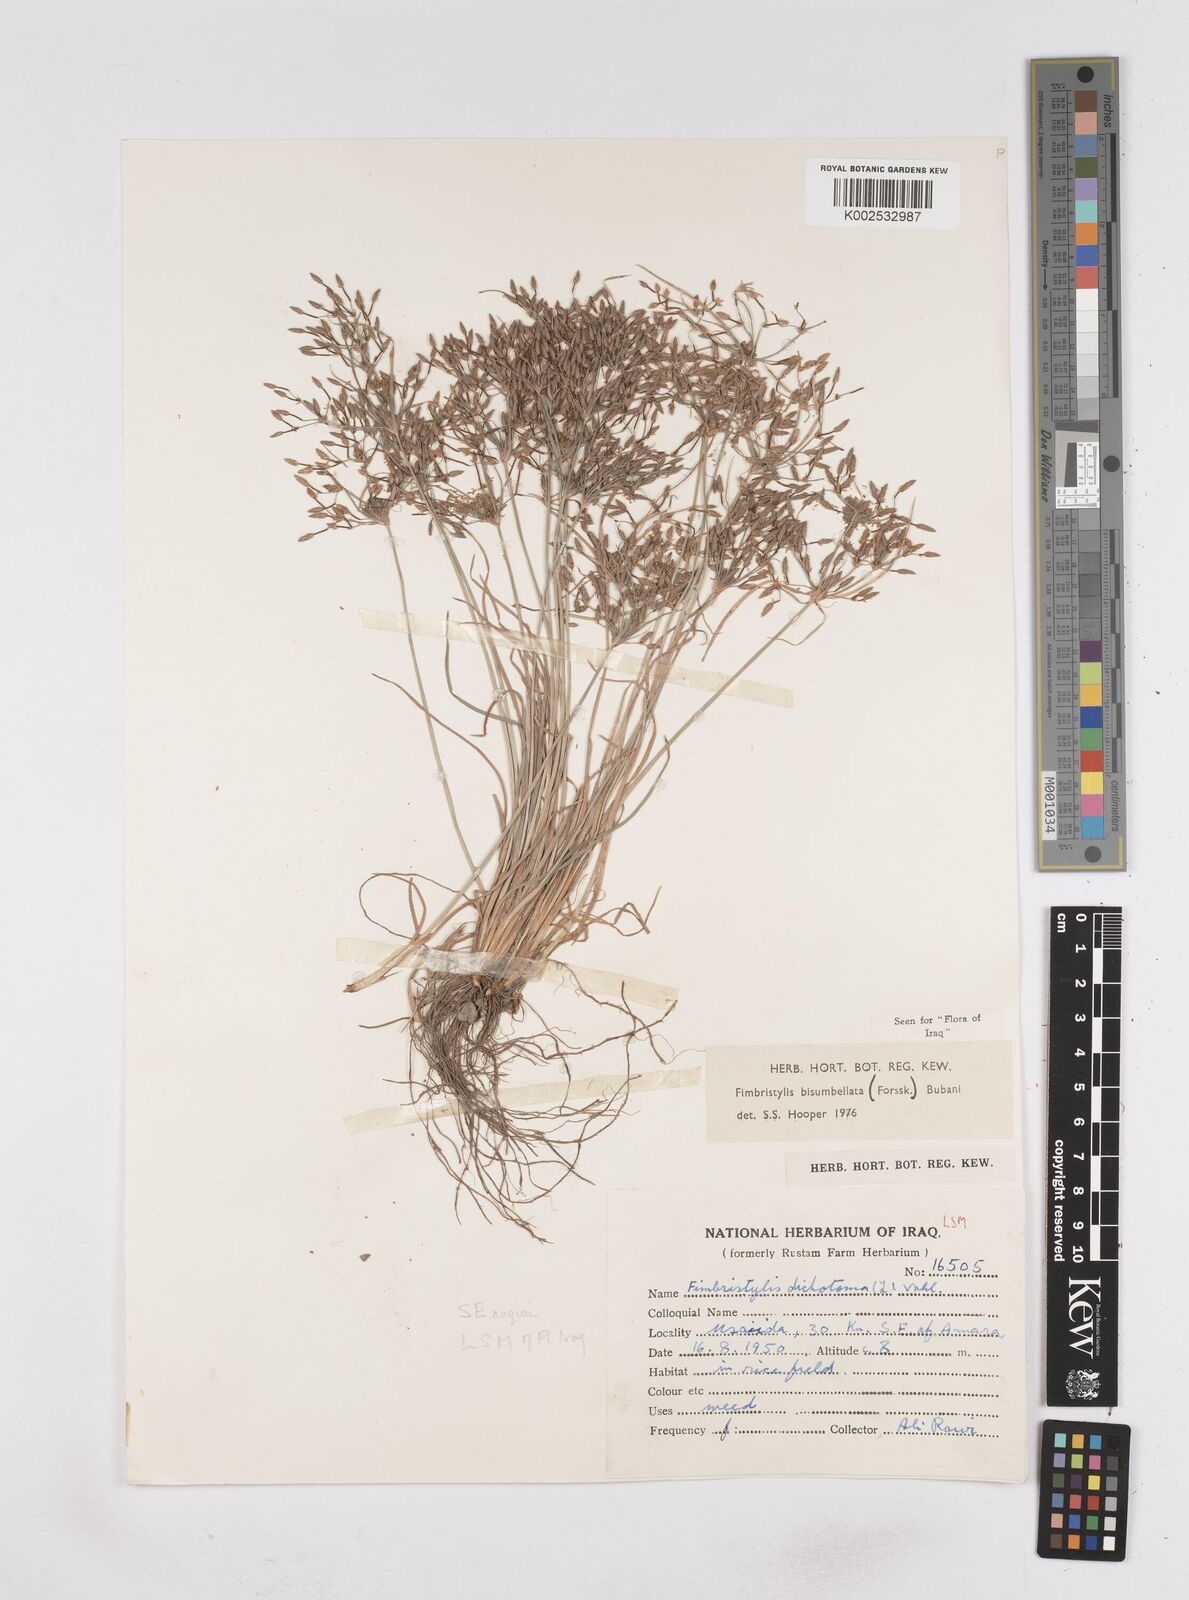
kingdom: Plantae
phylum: Tracheophyta
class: Liliopsida
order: Poales
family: Cyperaceae
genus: Fimbristylis
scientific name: Fimbristylis bisumbellata
